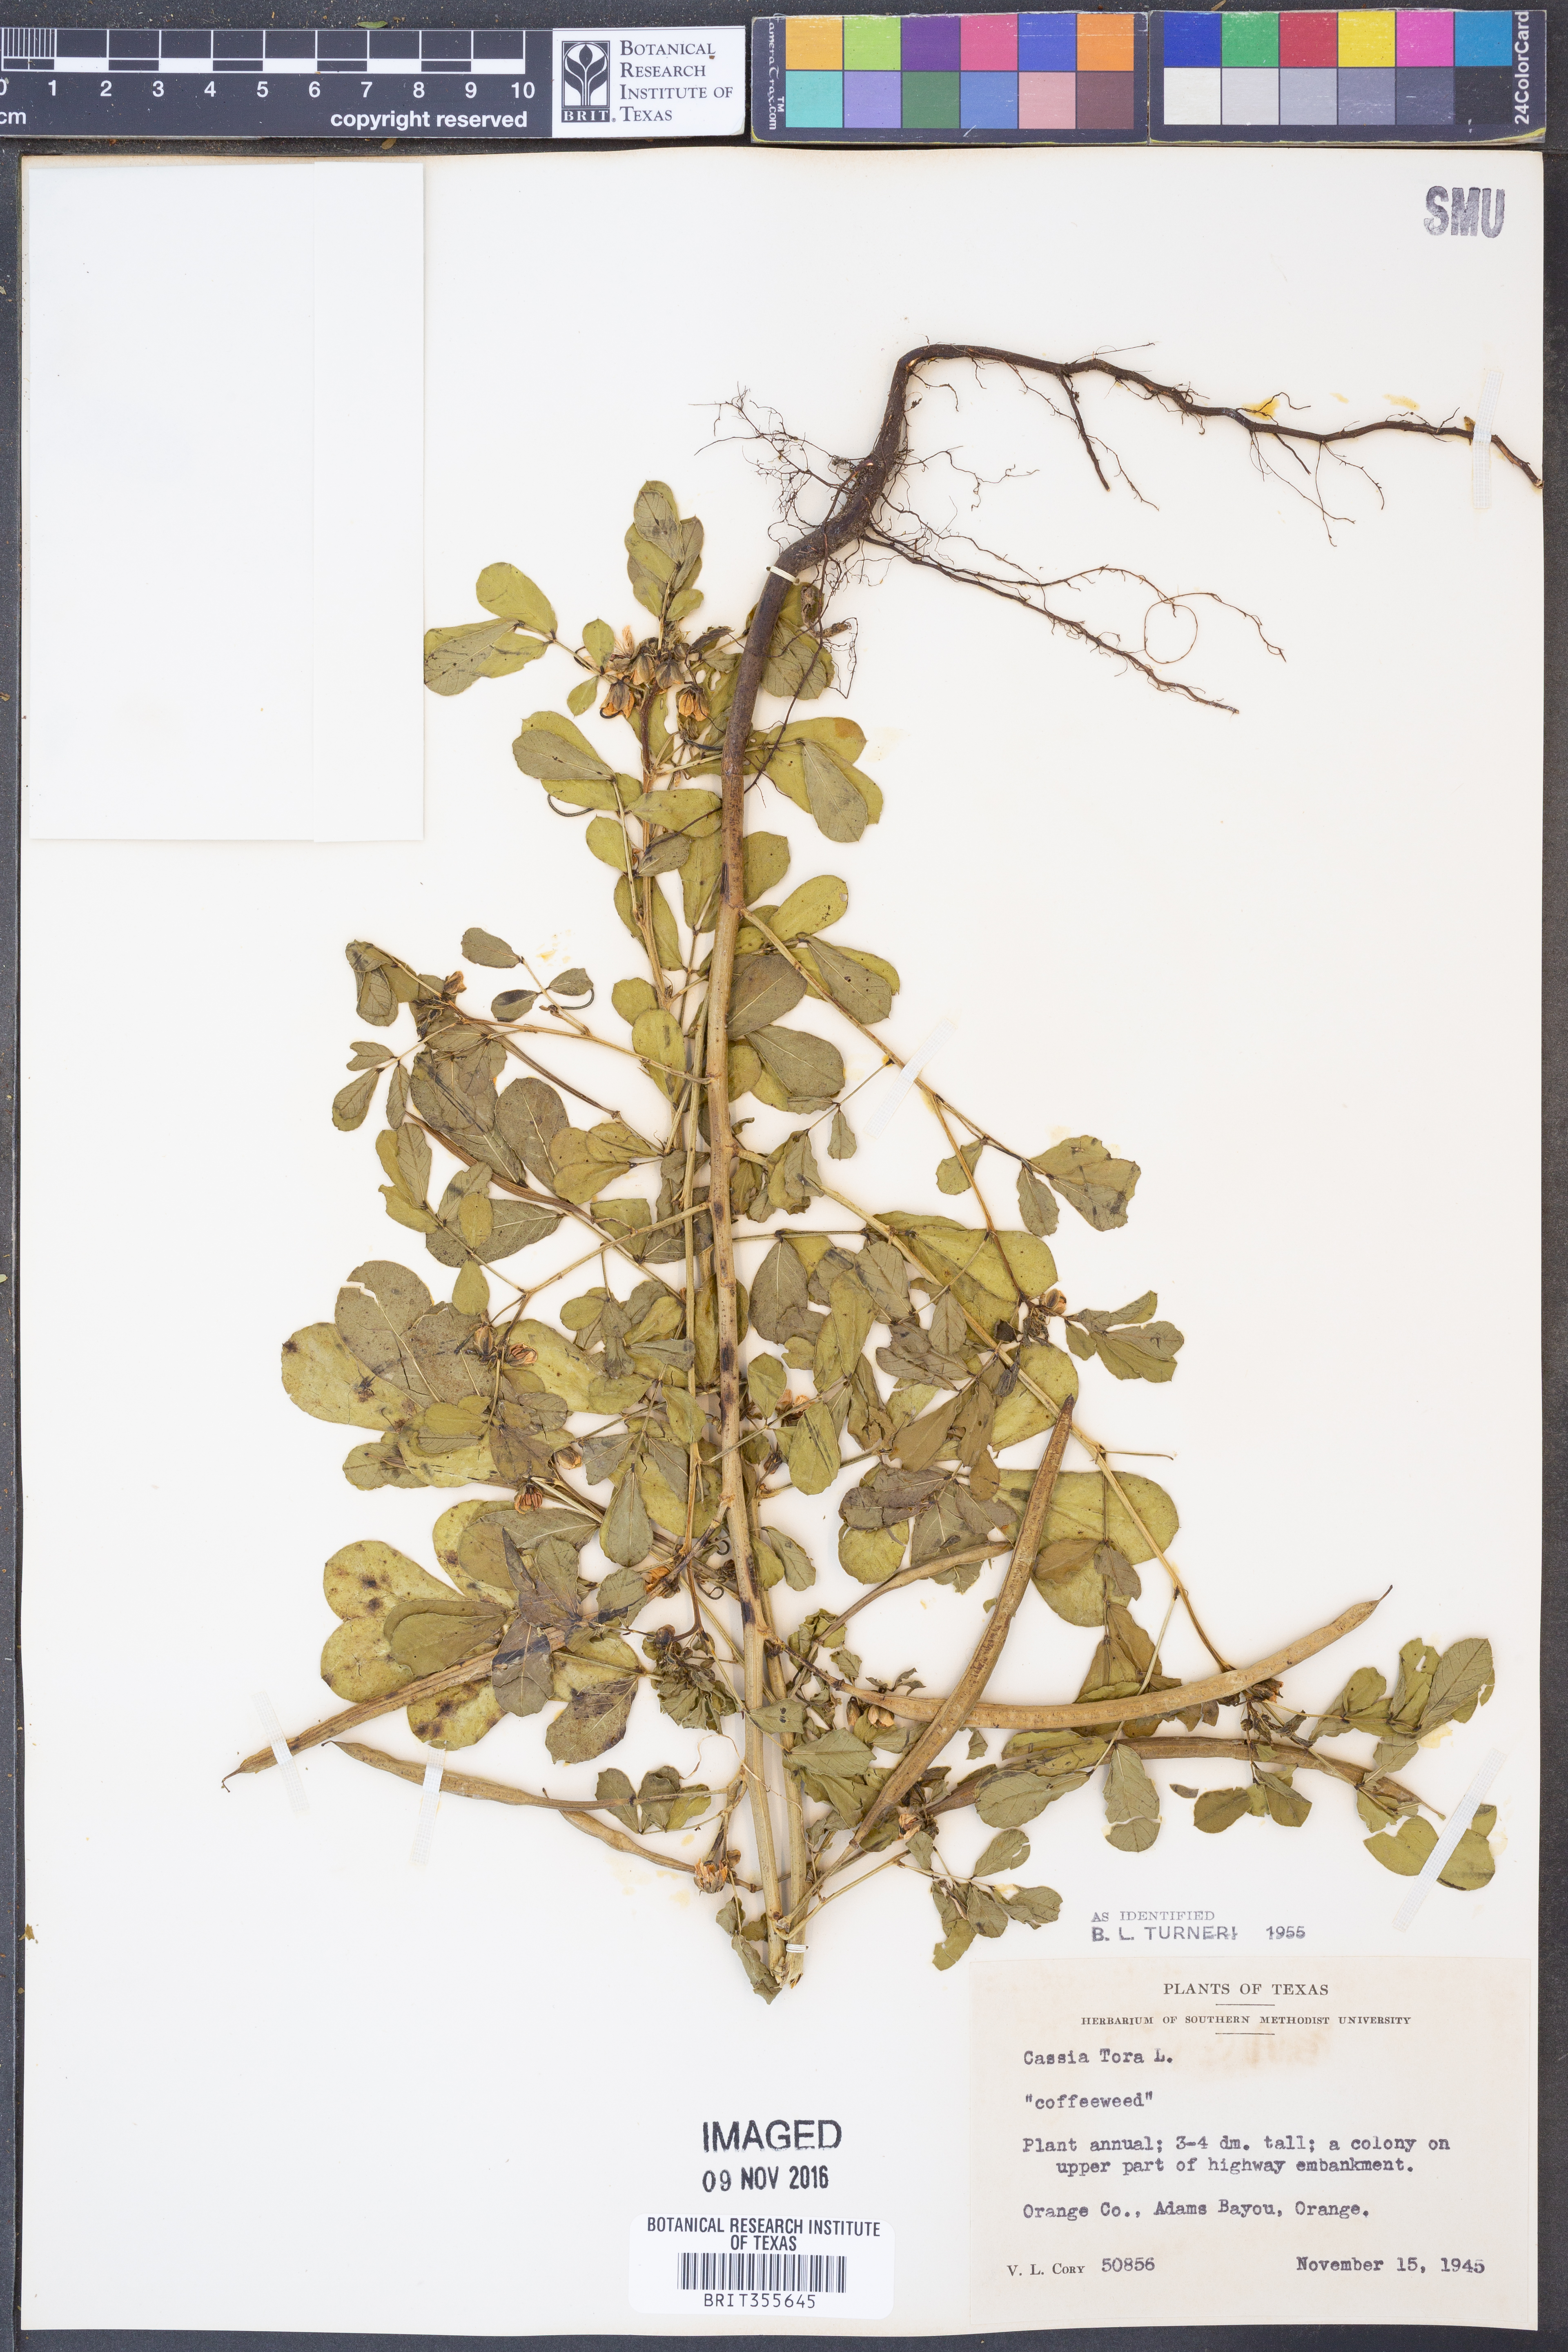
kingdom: Plantae
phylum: Tracheophyta
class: Magnoliopsida
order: Fabales
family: Fabaceae
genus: Senna
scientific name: Senna tora
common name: Sickle senna
